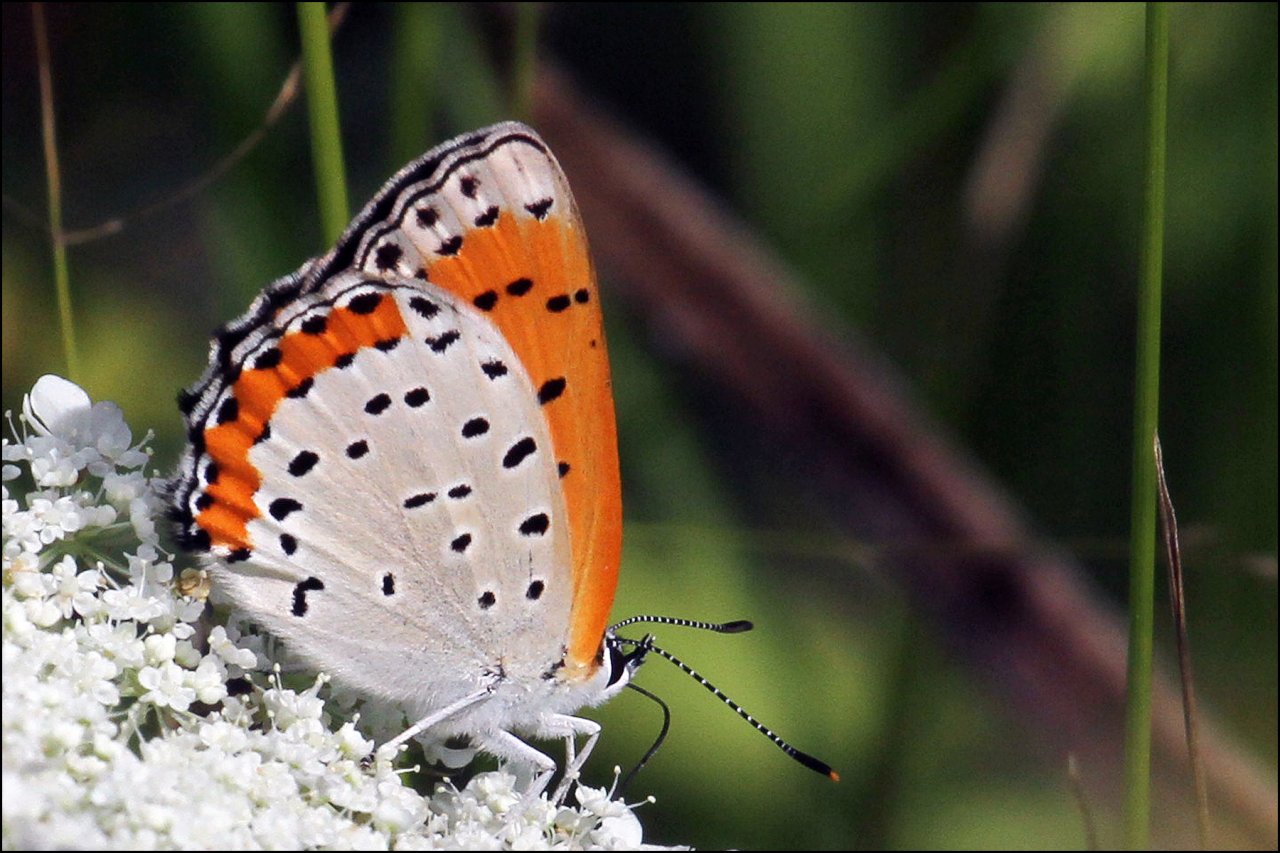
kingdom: Animalia
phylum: Arthropoda
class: Insecta
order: Lepidoptera
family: Sesiidae
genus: Sesia
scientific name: Sesia Lycaena hyllus
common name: Bronze Copper
